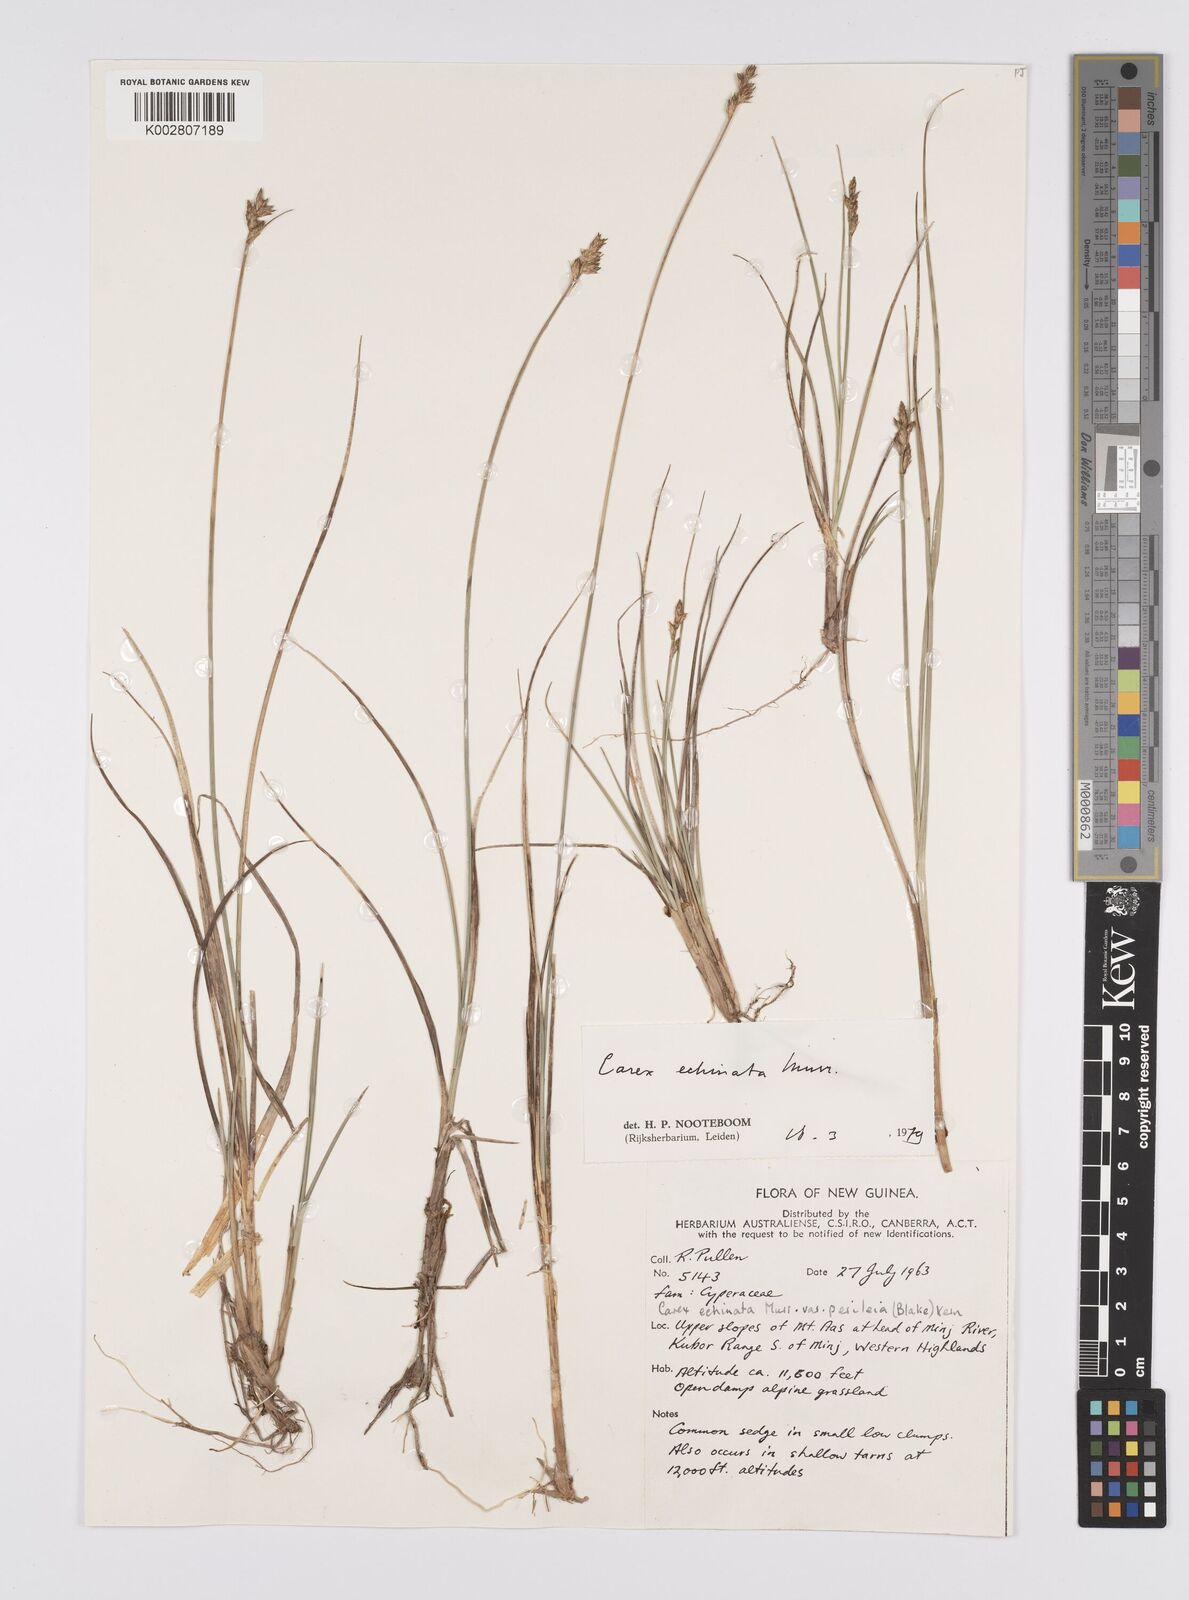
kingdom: Plantae
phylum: Tracheophyta
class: Liliopsida
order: Poales
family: Cyperaceae
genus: Carex
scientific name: Carex echinata
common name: Star sedge
